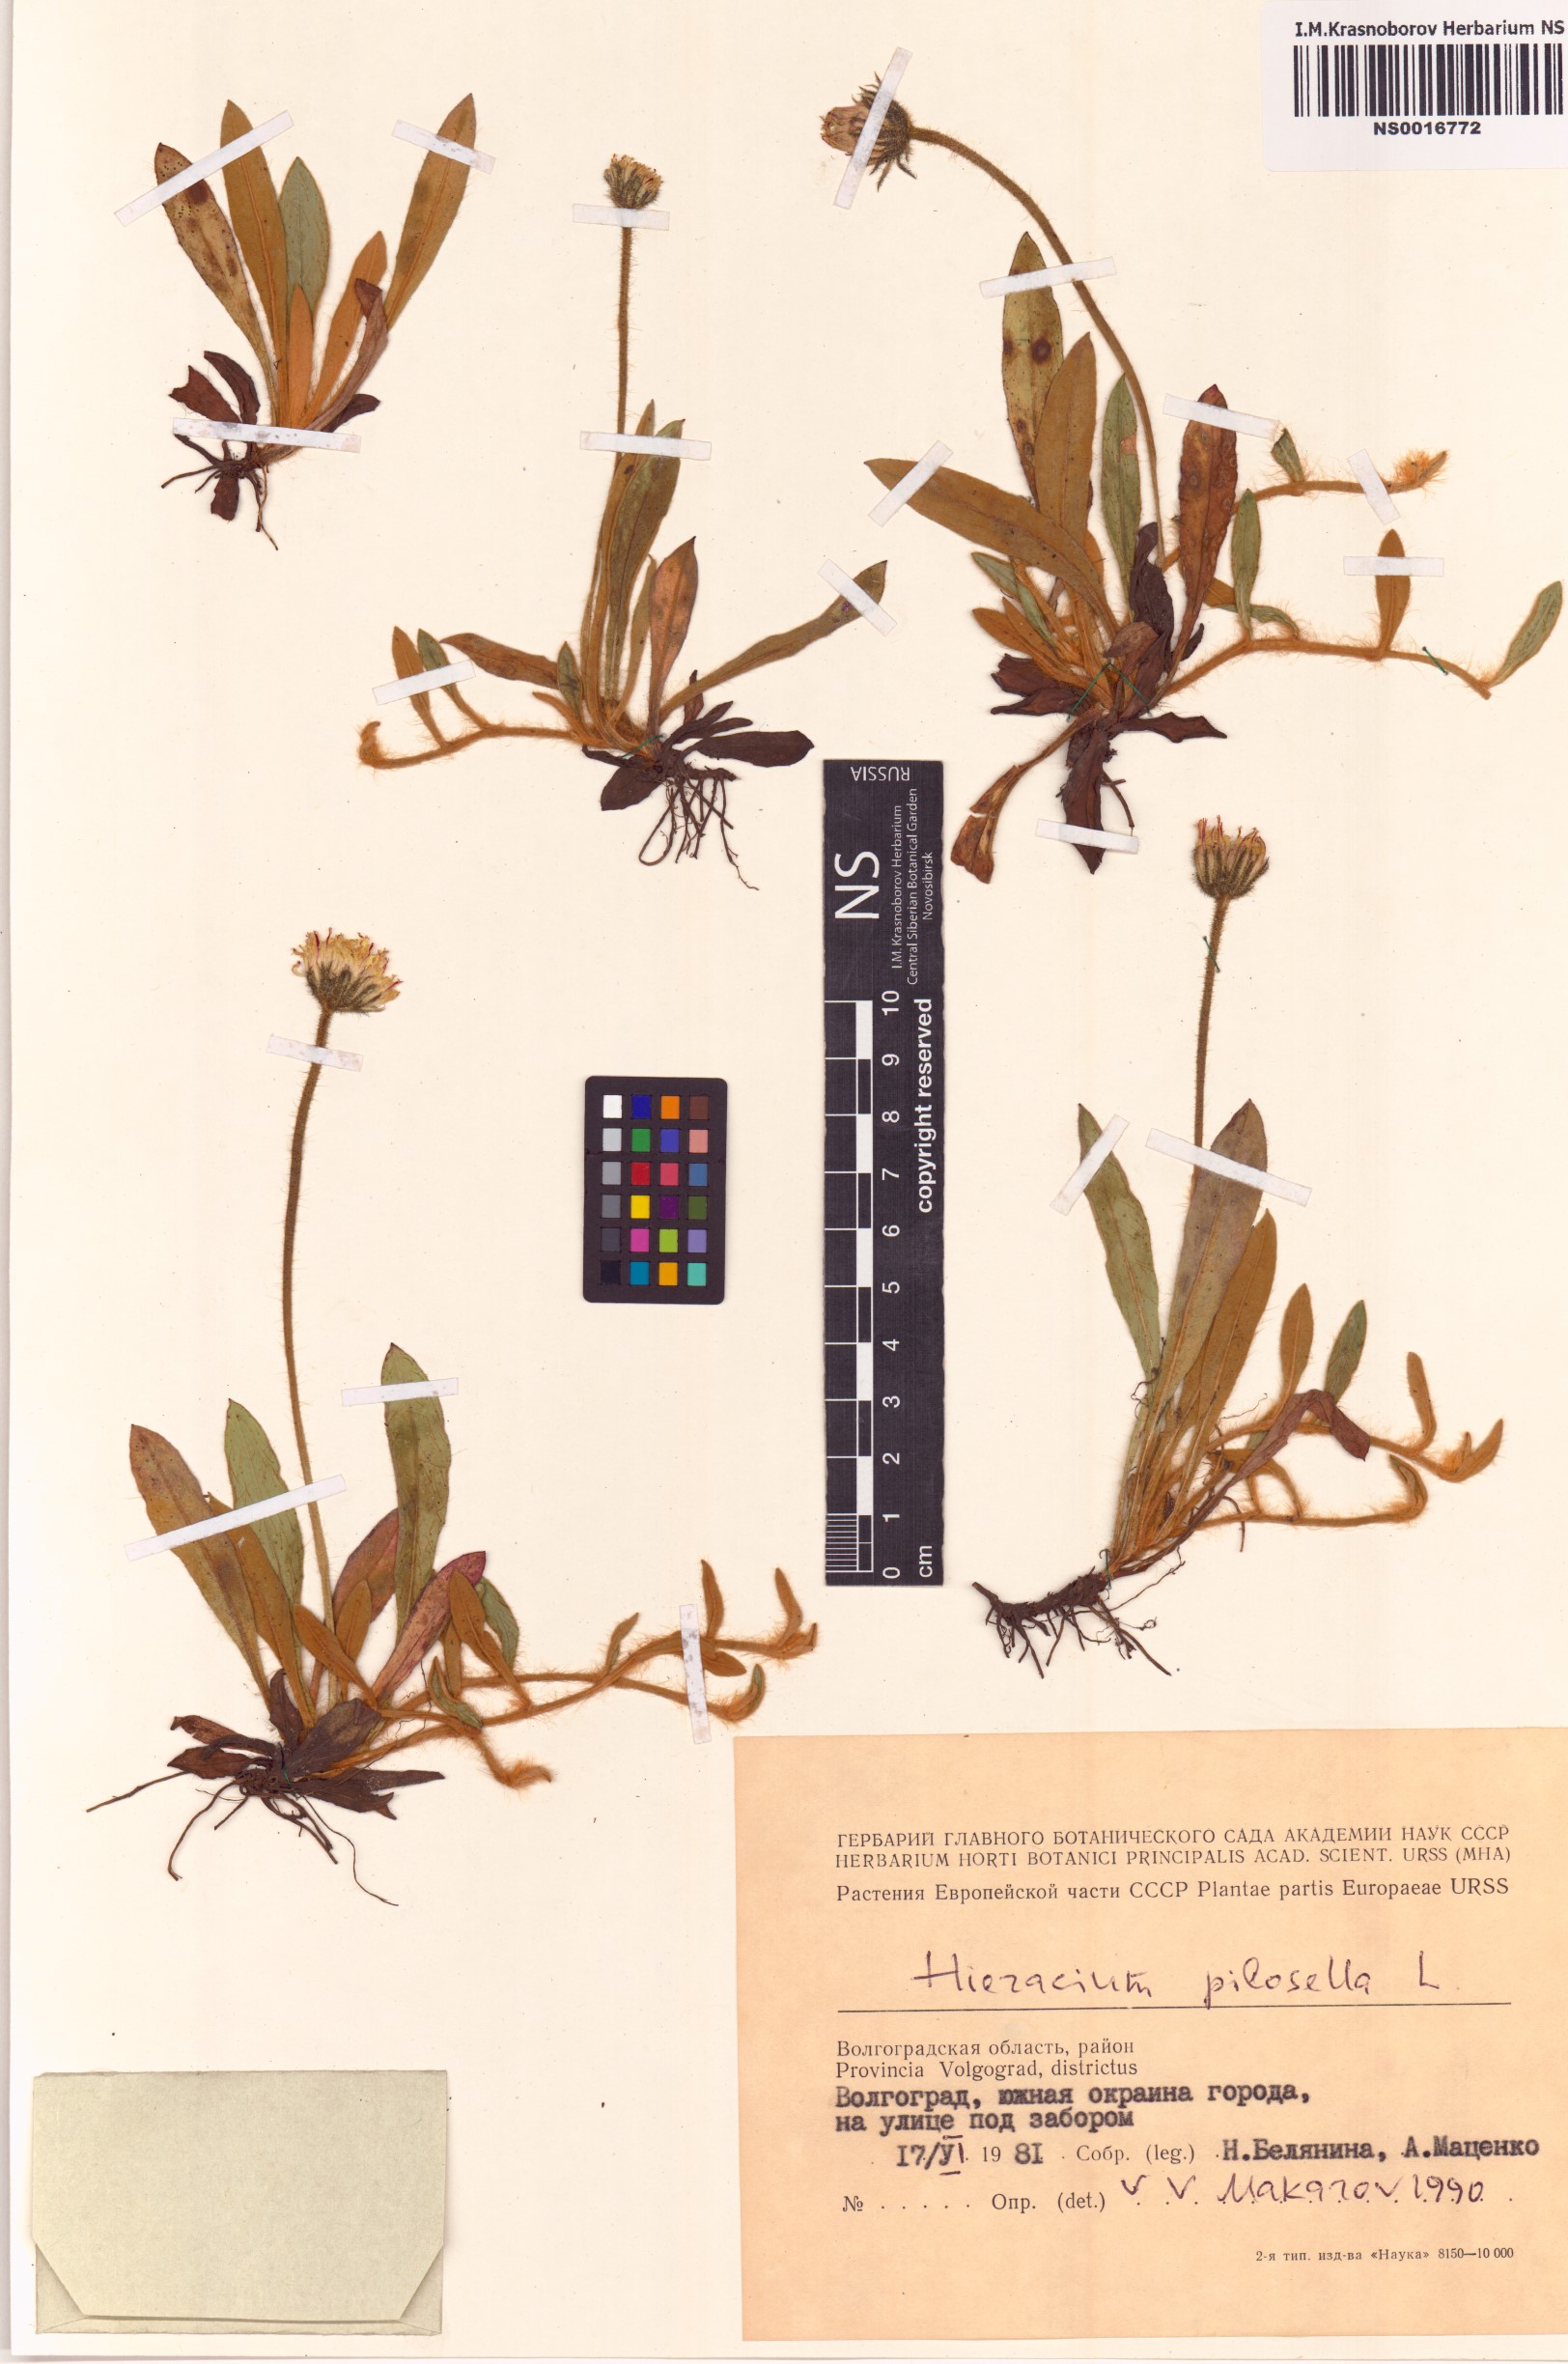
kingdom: Plantae
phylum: Tracheophyta
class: Magnoliopsida
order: Asterales
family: Asteraceae
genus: Pilosella
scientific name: Pilosella officinarum
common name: Mouse-ear hawkweed
